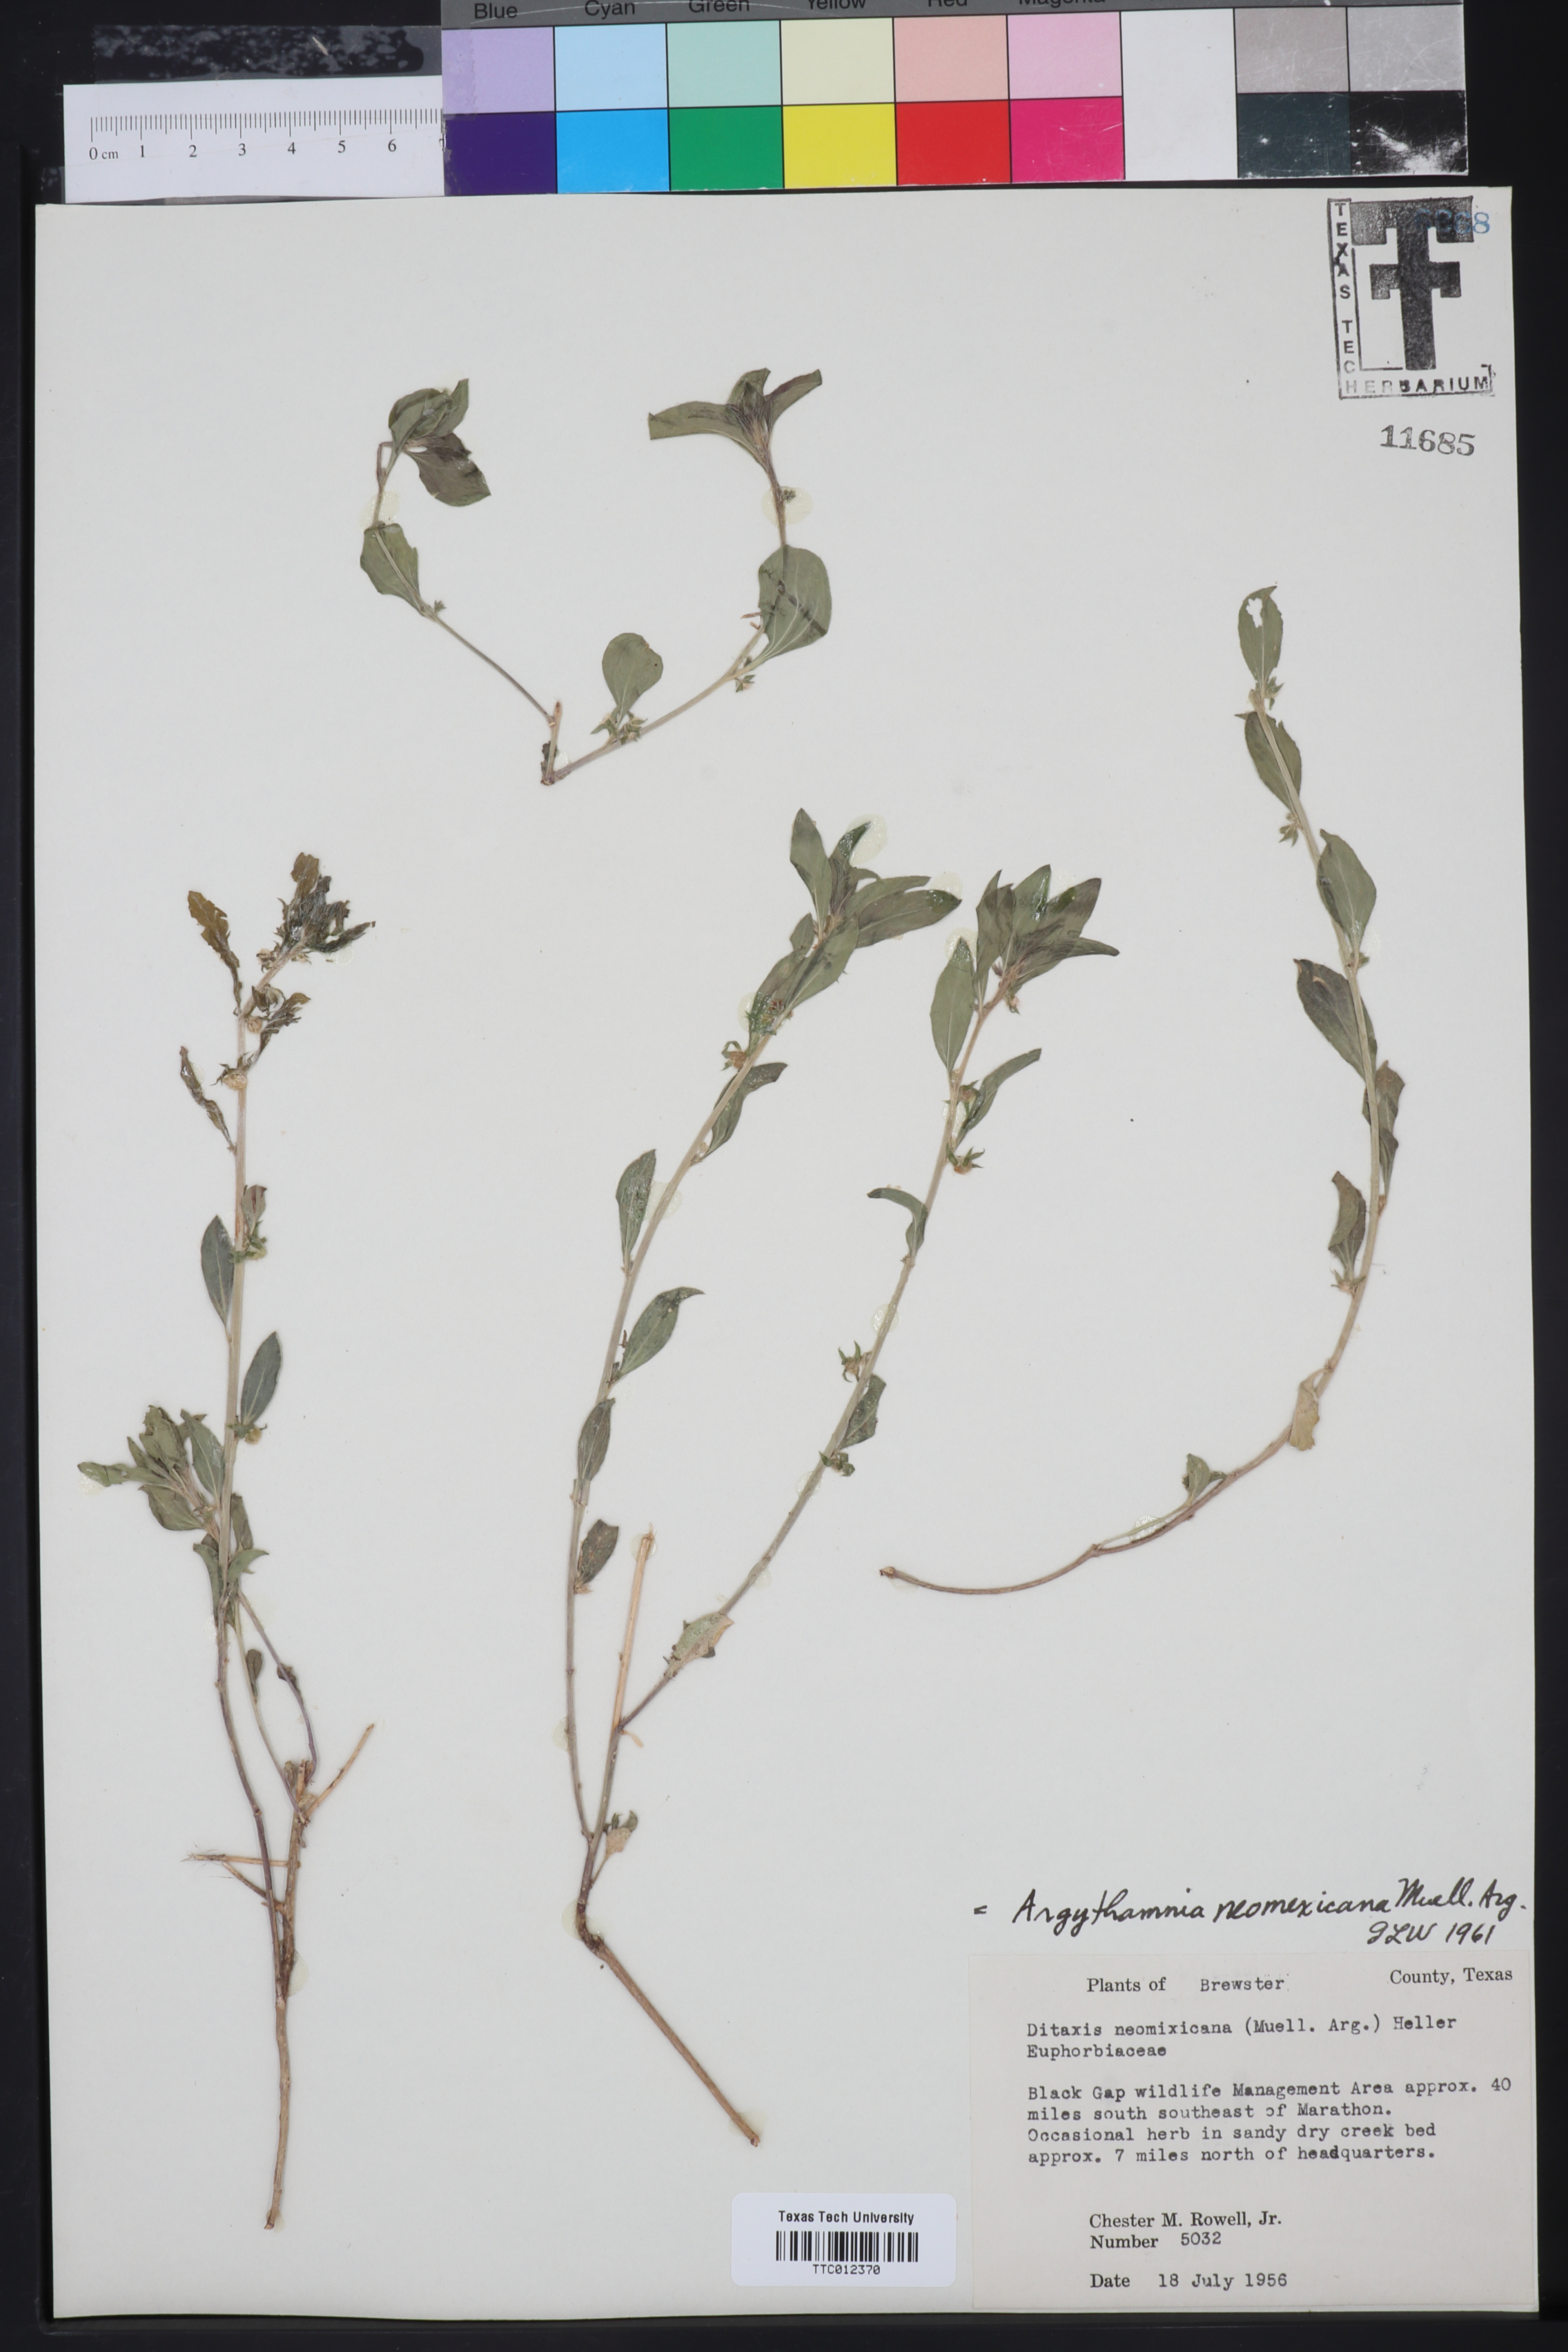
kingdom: Plantae
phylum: Tracheophyta
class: Magnoliopsida
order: Malpighiales
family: Euphorbiaceae
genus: Ditaxis
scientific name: Ditaxis serrata
